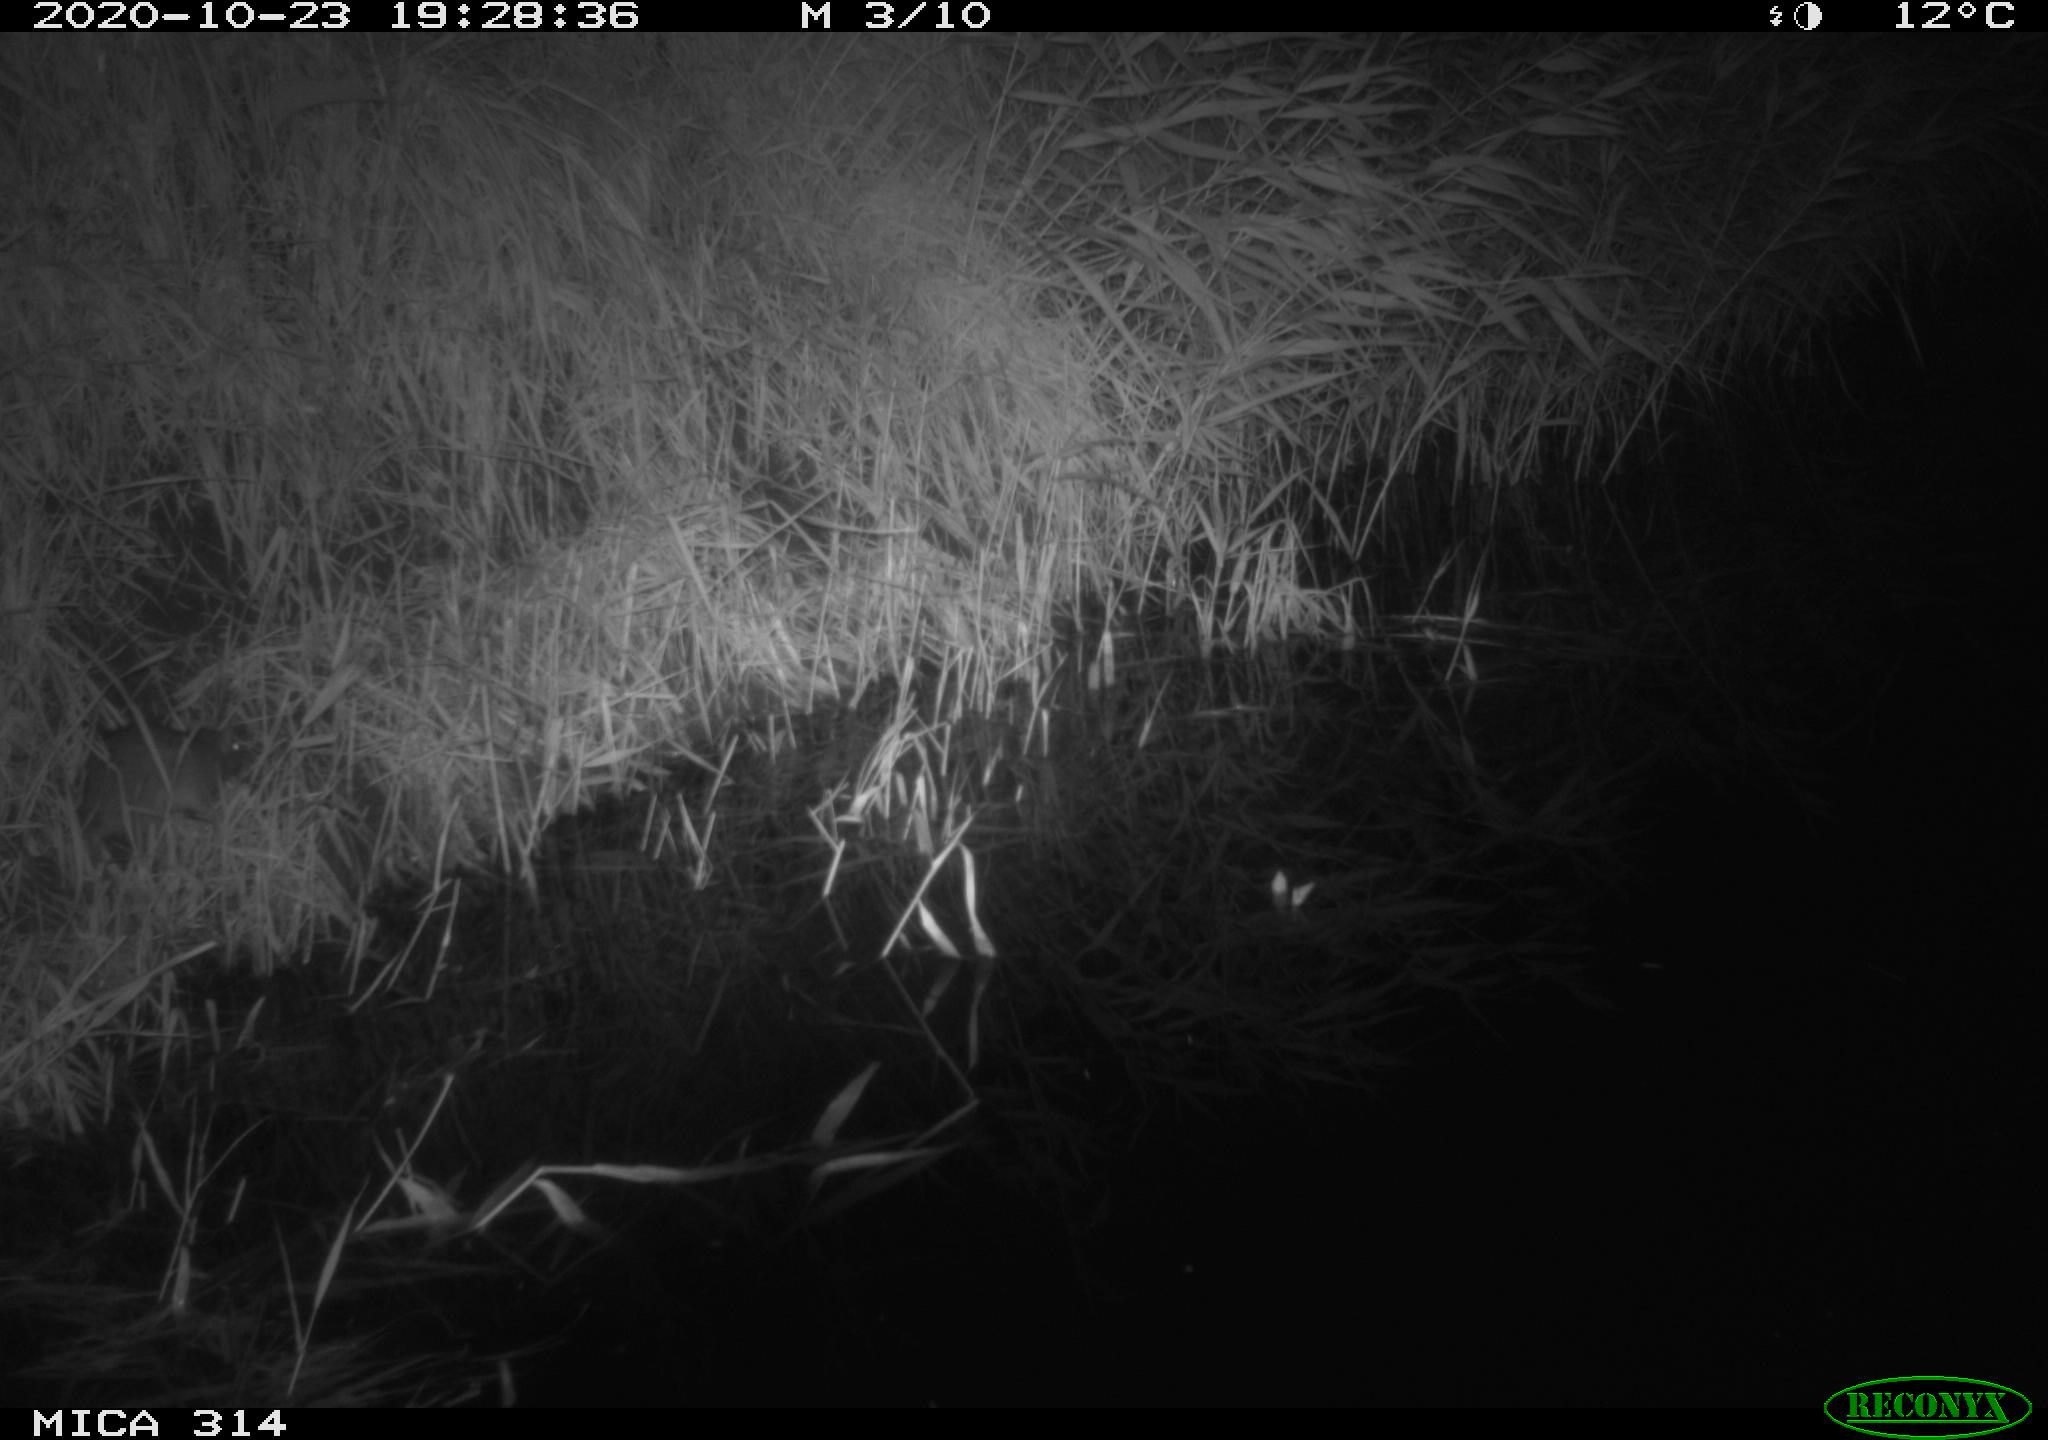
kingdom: Animalia
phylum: Chordata
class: Mammalia
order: Rodentia
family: Muridae
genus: Rattus
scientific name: Rattus norvegicus
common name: Brown rat
